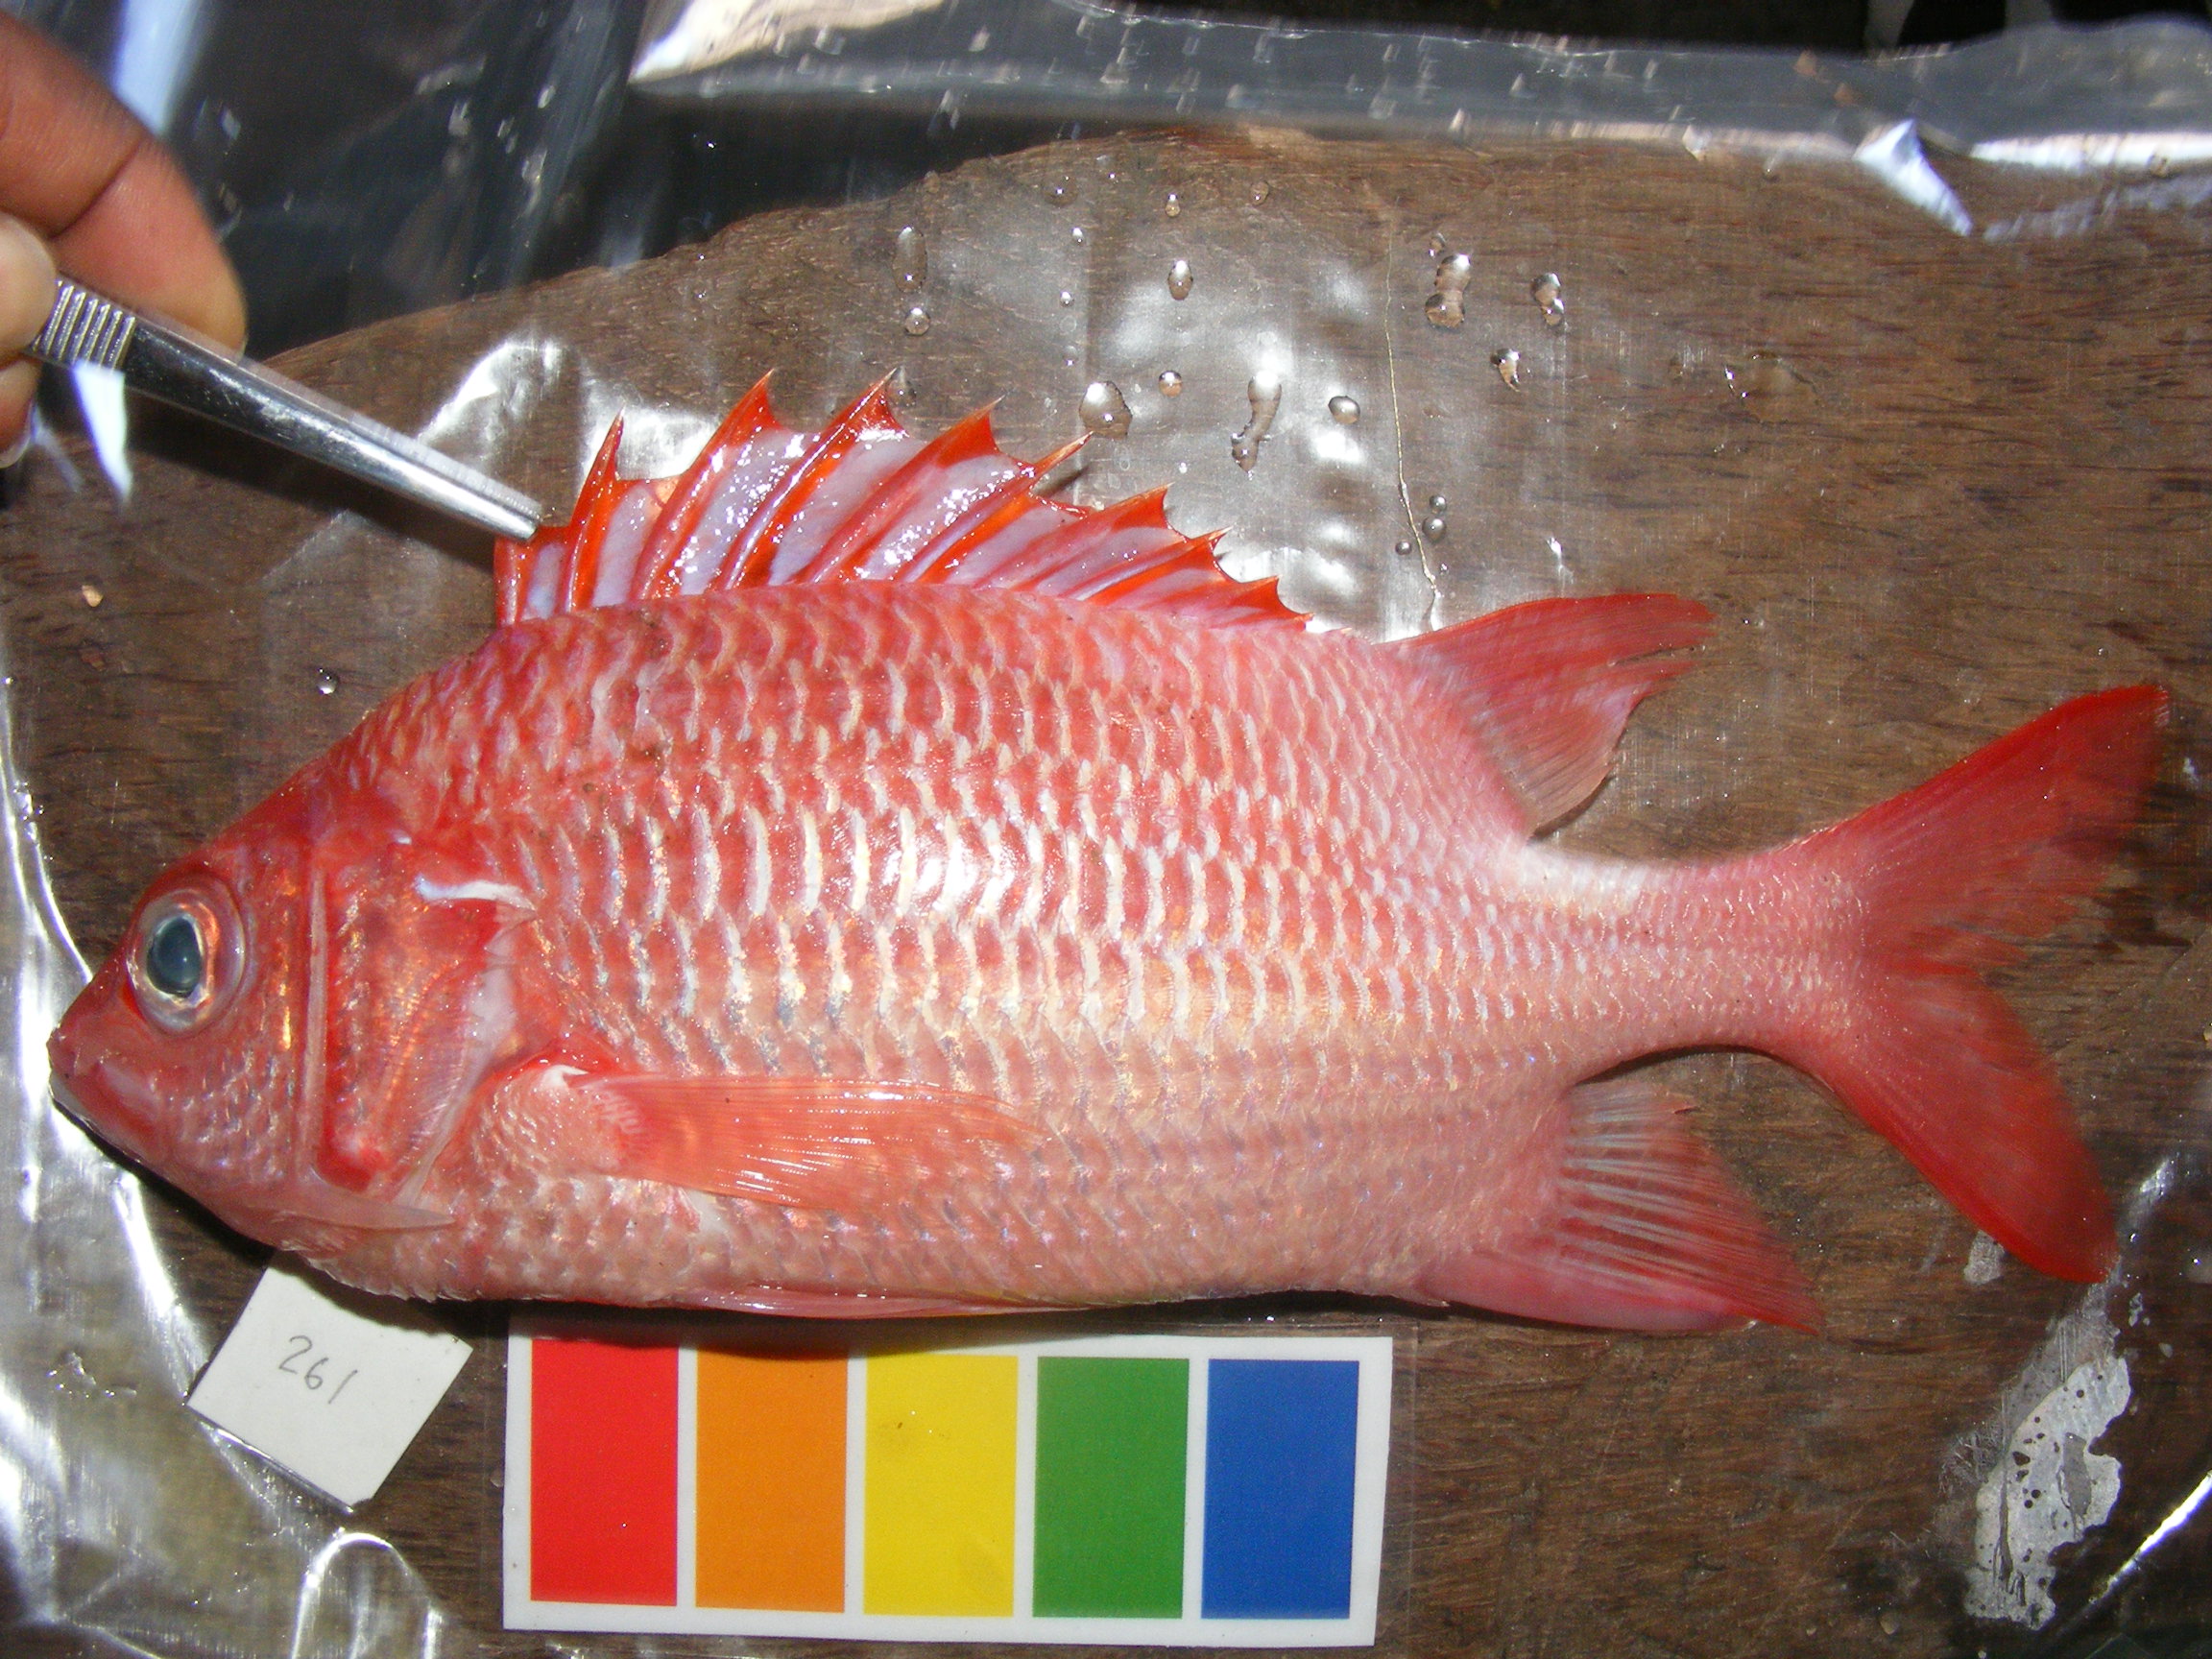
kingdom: Animalia
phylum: Chordata
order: Beryciformes
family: Holocentridae
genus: Sargocentron
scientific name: Sargocentron caudimaculatum
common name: Fanfin soldier
